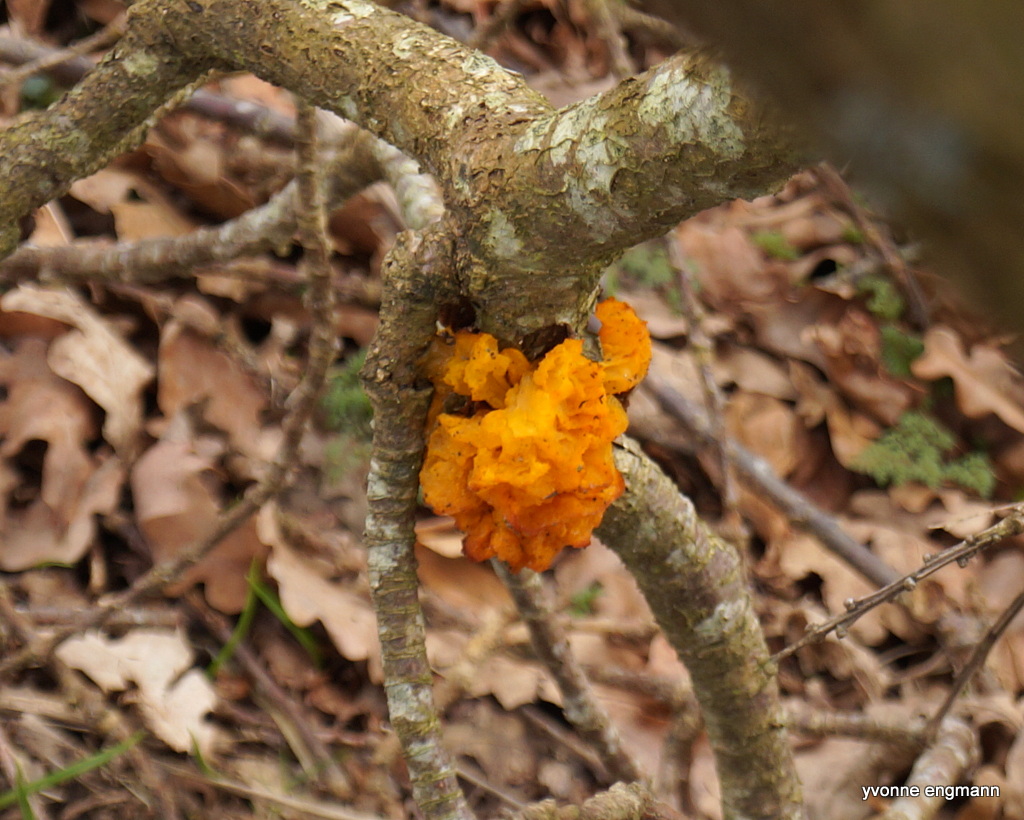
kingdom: Fungi
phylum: Basidiomycota
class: Tremellomycetes
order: Tremellales
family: Tremellaceae
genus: Tremella
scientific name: Tremella mesenterica
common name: gul bævresvamp
